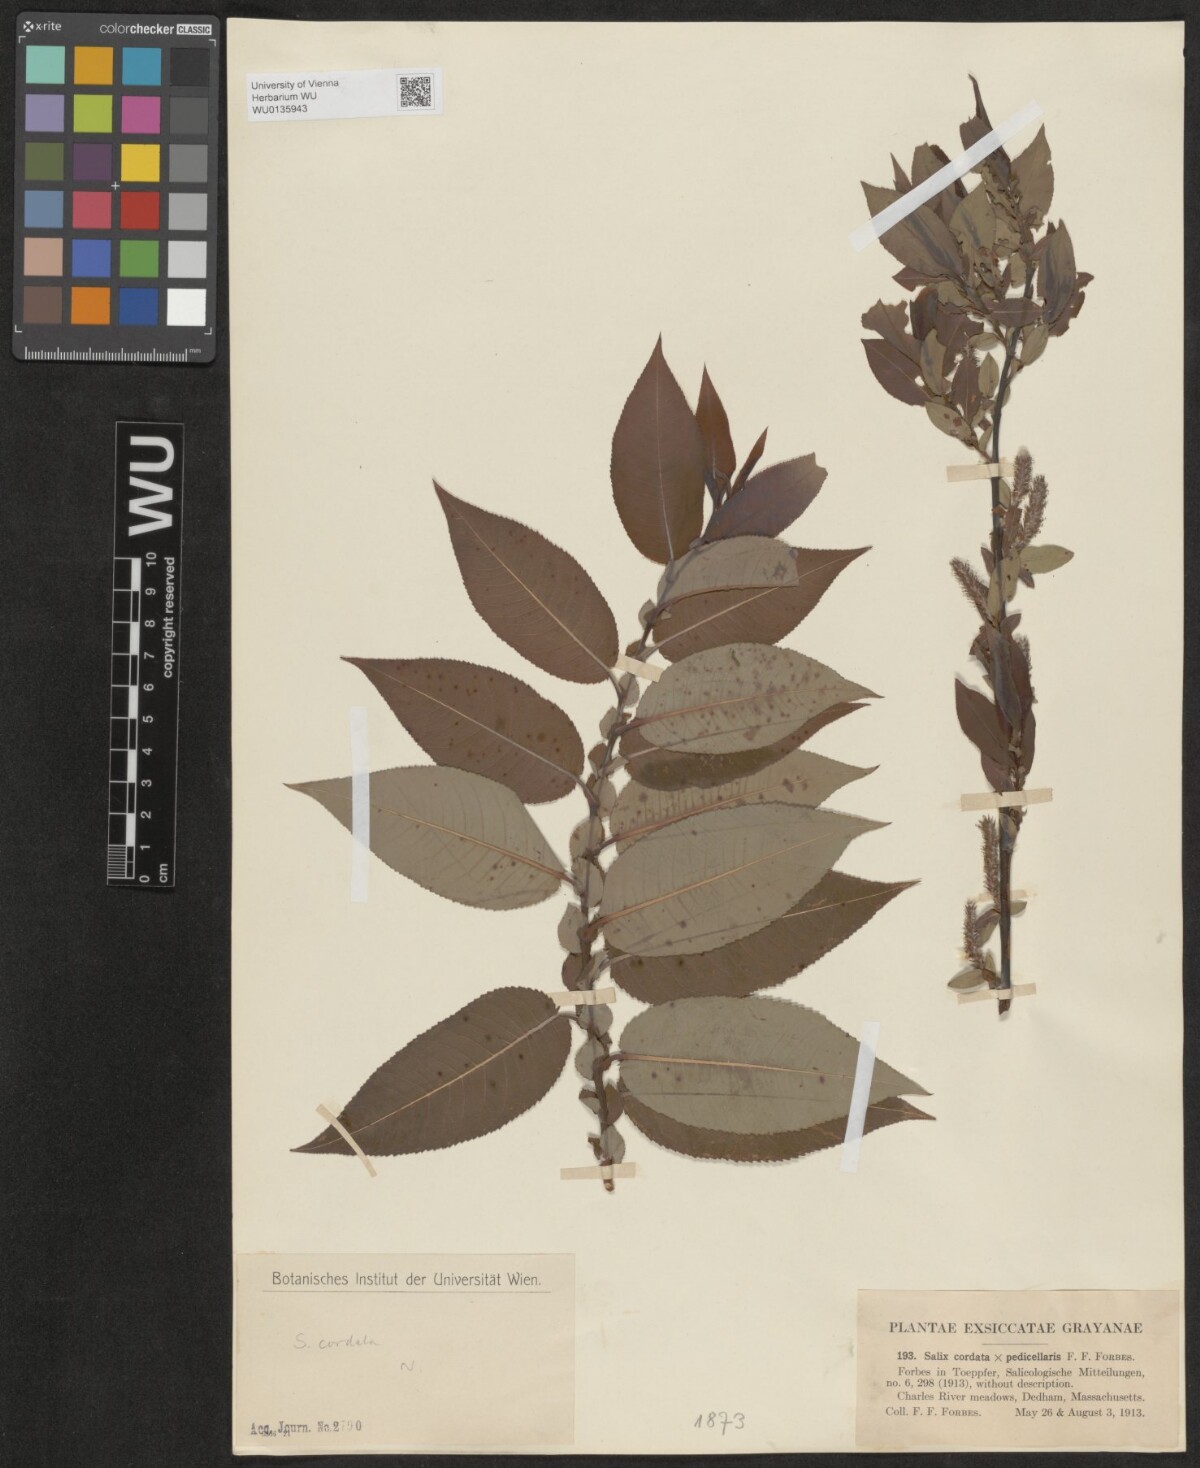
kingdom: Plantae
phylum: Tracheophyta
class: Magnoliopsida
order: Malpighiales
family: Salicaceae
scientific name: Salicaceae
